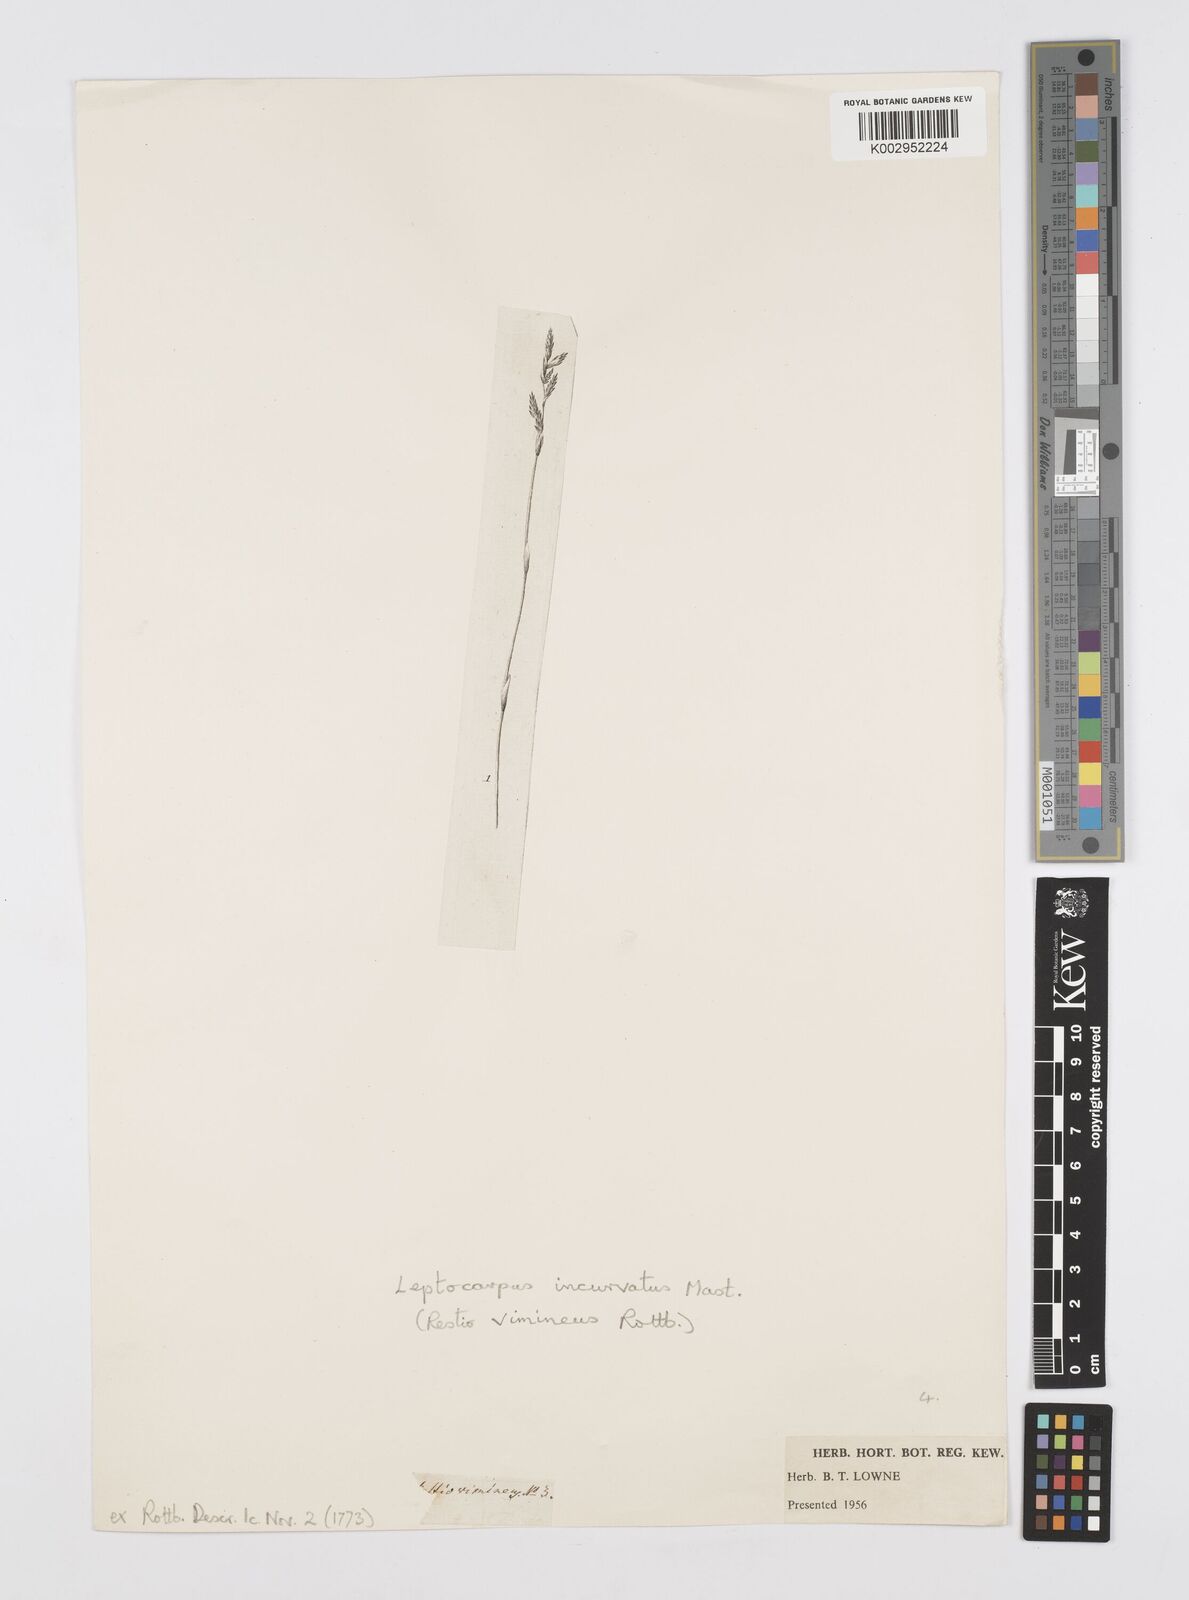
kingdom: Plantae
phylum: Tracheophyta
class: Liliopsida
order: Poales
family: Restionaceae
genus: Restio
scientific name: Restio vimineus
